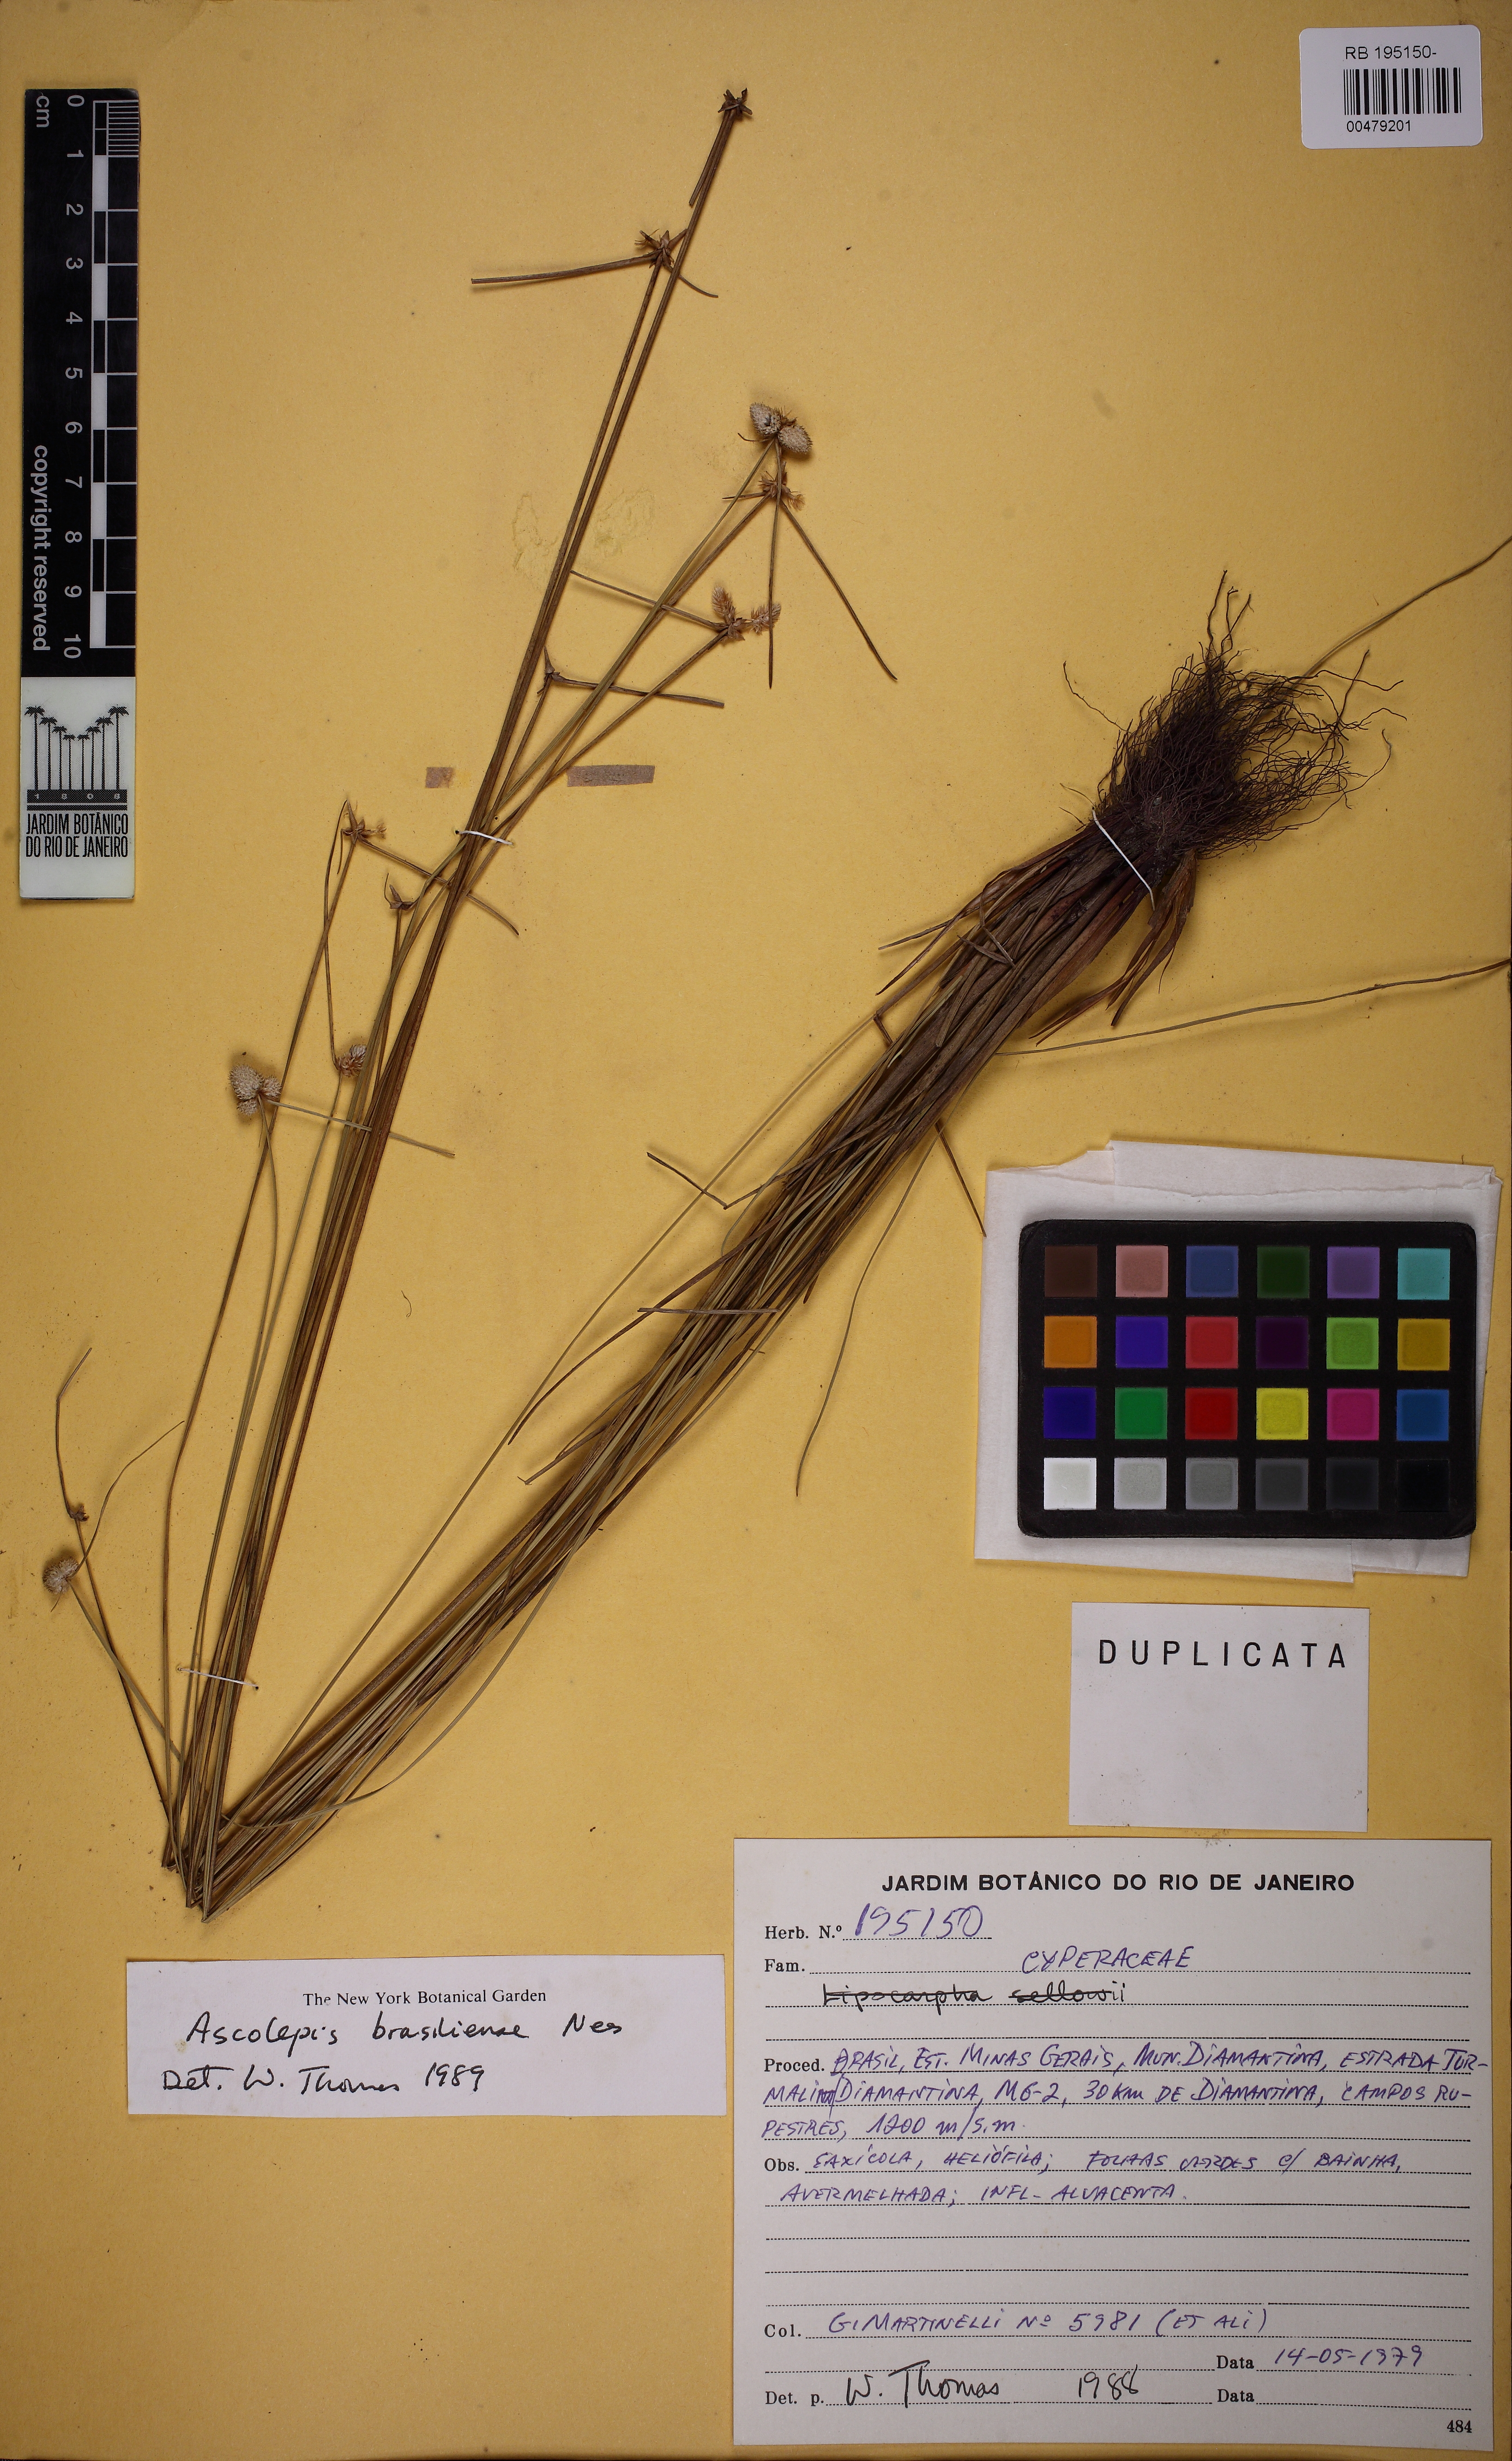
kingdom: Plantae
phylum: Tracheophyta
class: Liliopsida
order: Poales
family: Cyperaceae
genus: Cyperus
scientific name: Cyperus brasiliensis
